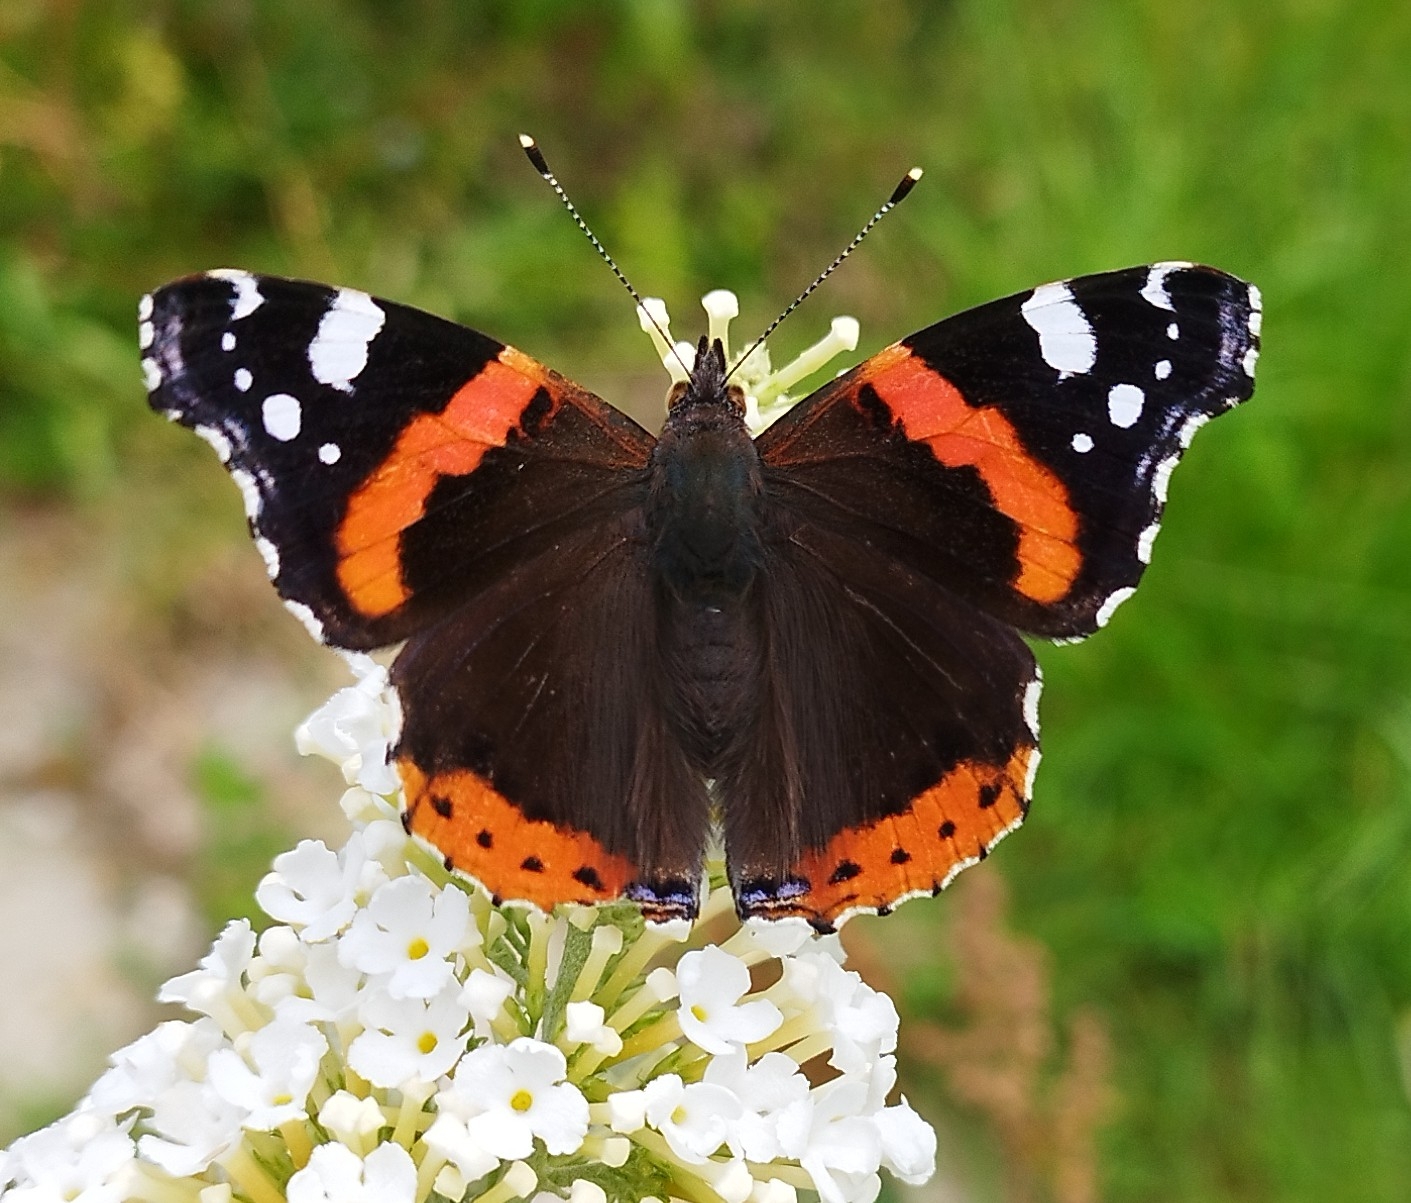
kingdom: Animalia
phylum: Arthropoda
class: Insecta
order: Lepidoptera
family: Nymphalidae
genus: Vanessa
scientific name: Vanessa atalanta
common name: Admiral
